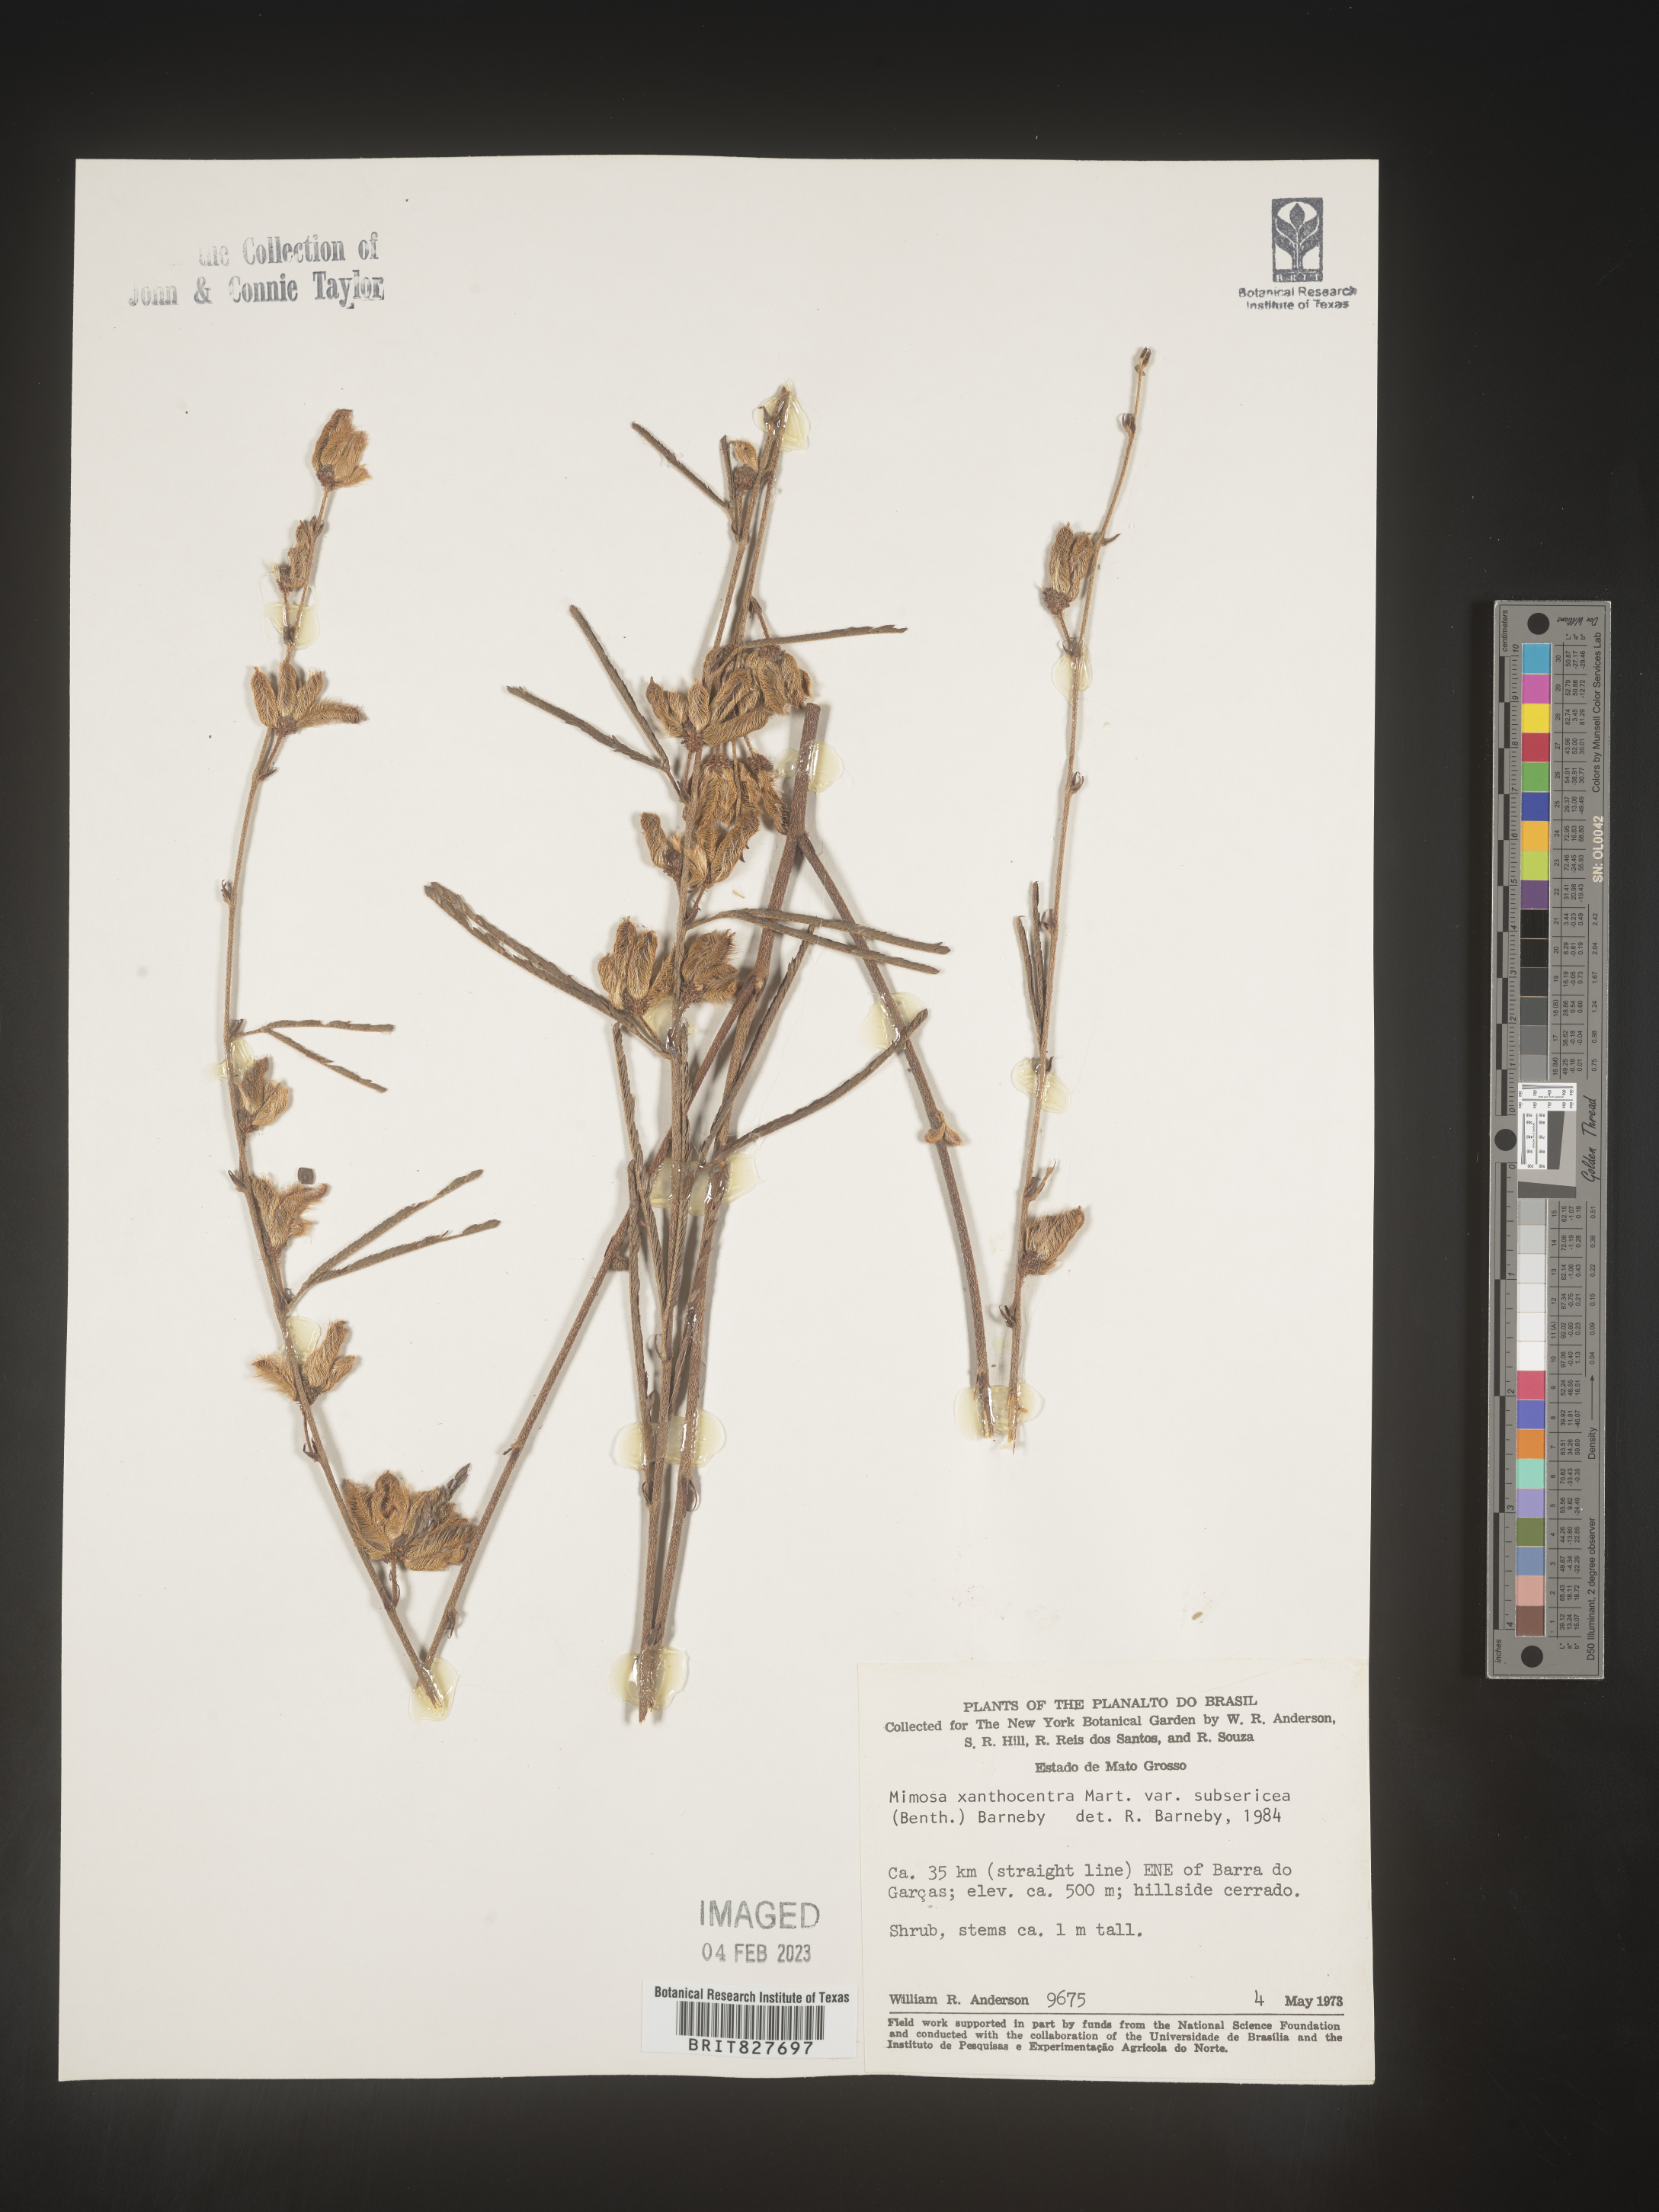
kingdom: Plantae
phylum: Tracheophyta
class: Magnoliopsida
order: Fabales
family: Fabaceae
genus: Mimosa
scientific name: Mimosa
